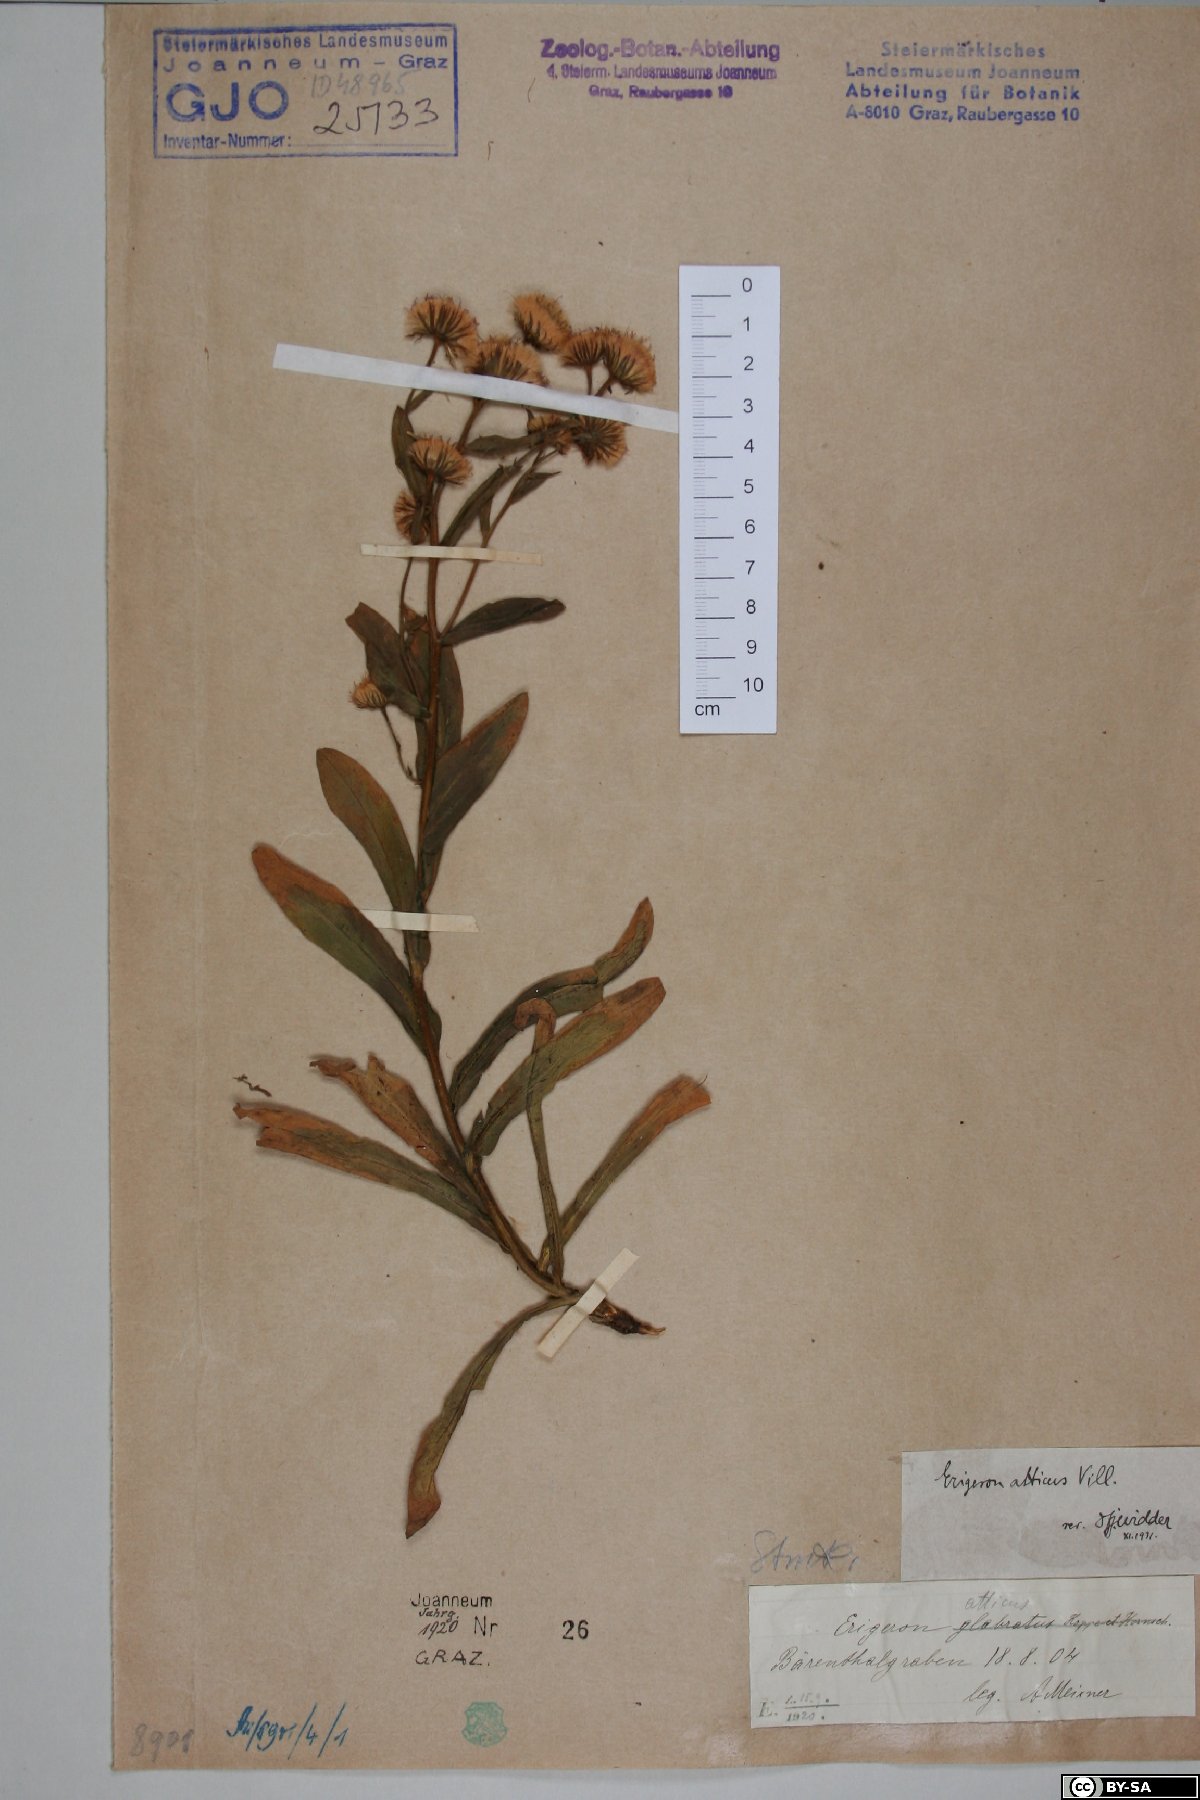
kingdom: Plantae
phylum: Tracheophyta
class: Magnoliopsida
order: Asterales
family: Asteraceae
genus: Erigeron
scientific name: Erigeron atticus
